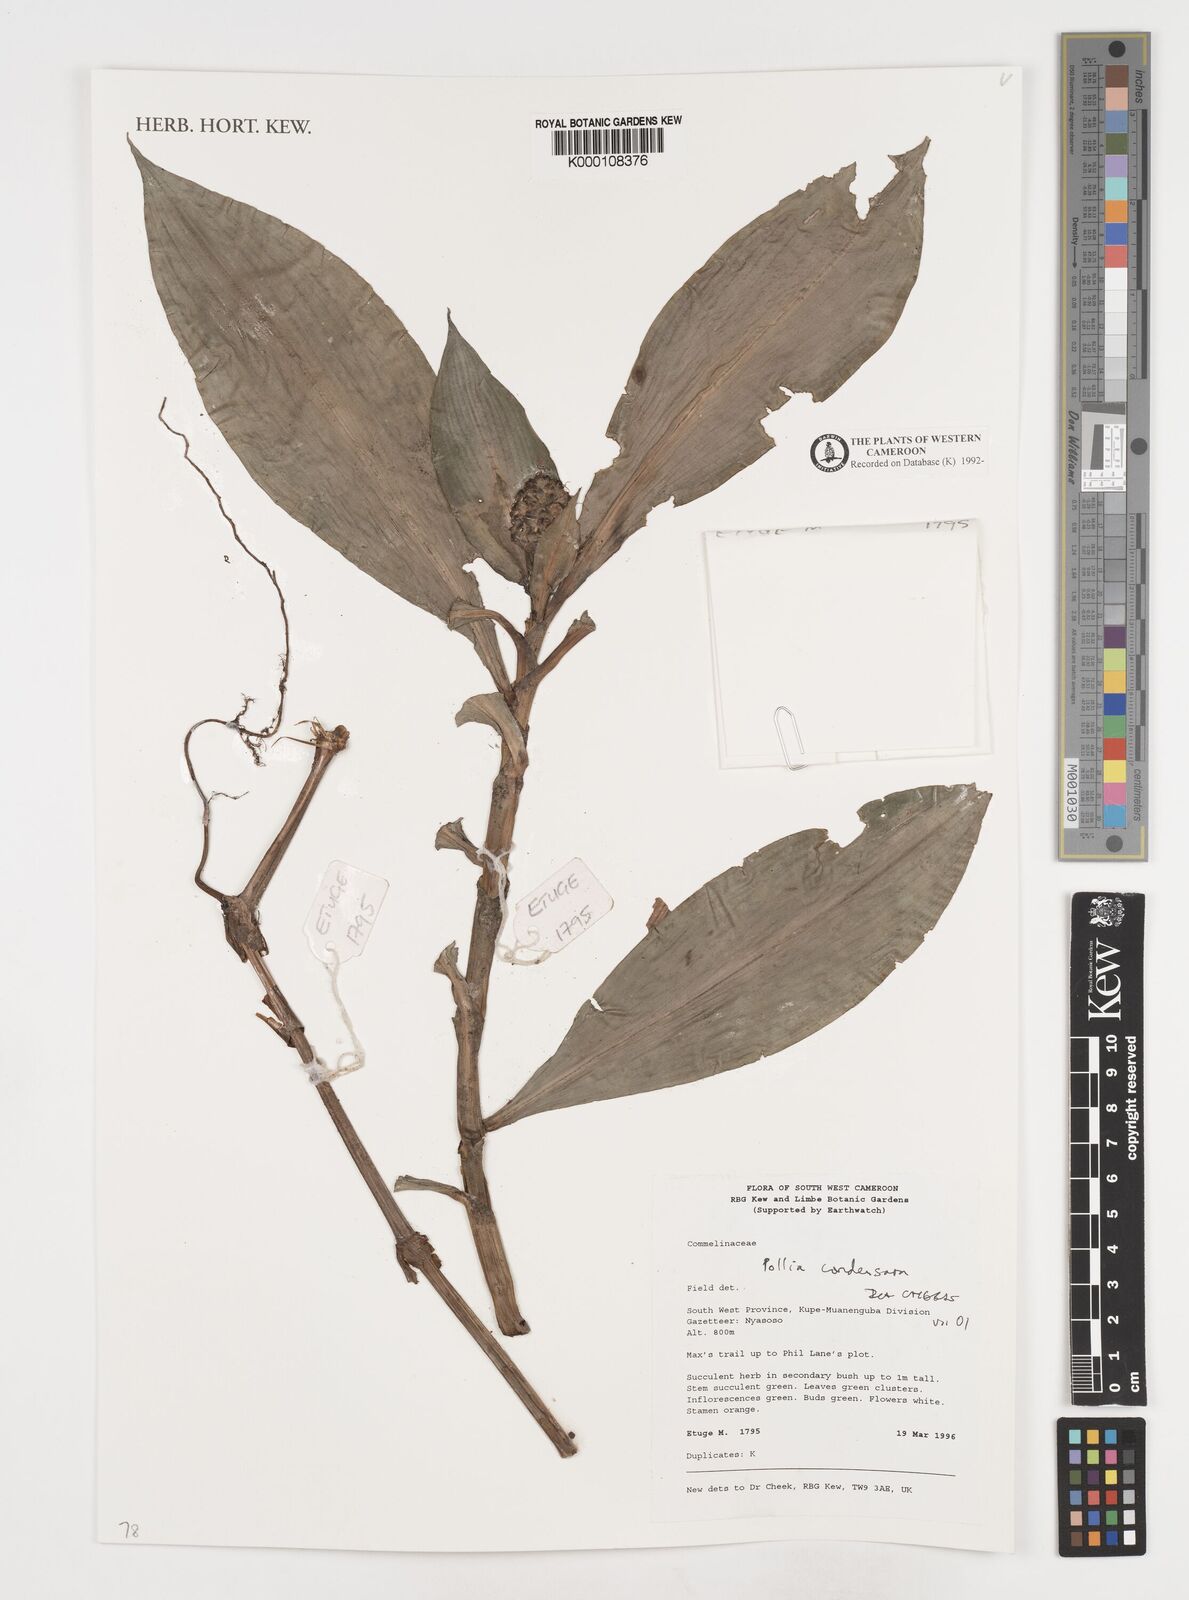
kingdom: Plantae
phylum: Tracheophyta
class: Liliopsida
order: Commelinales
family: Commelinaceae
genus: Pollia
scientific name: Pollia condensata
